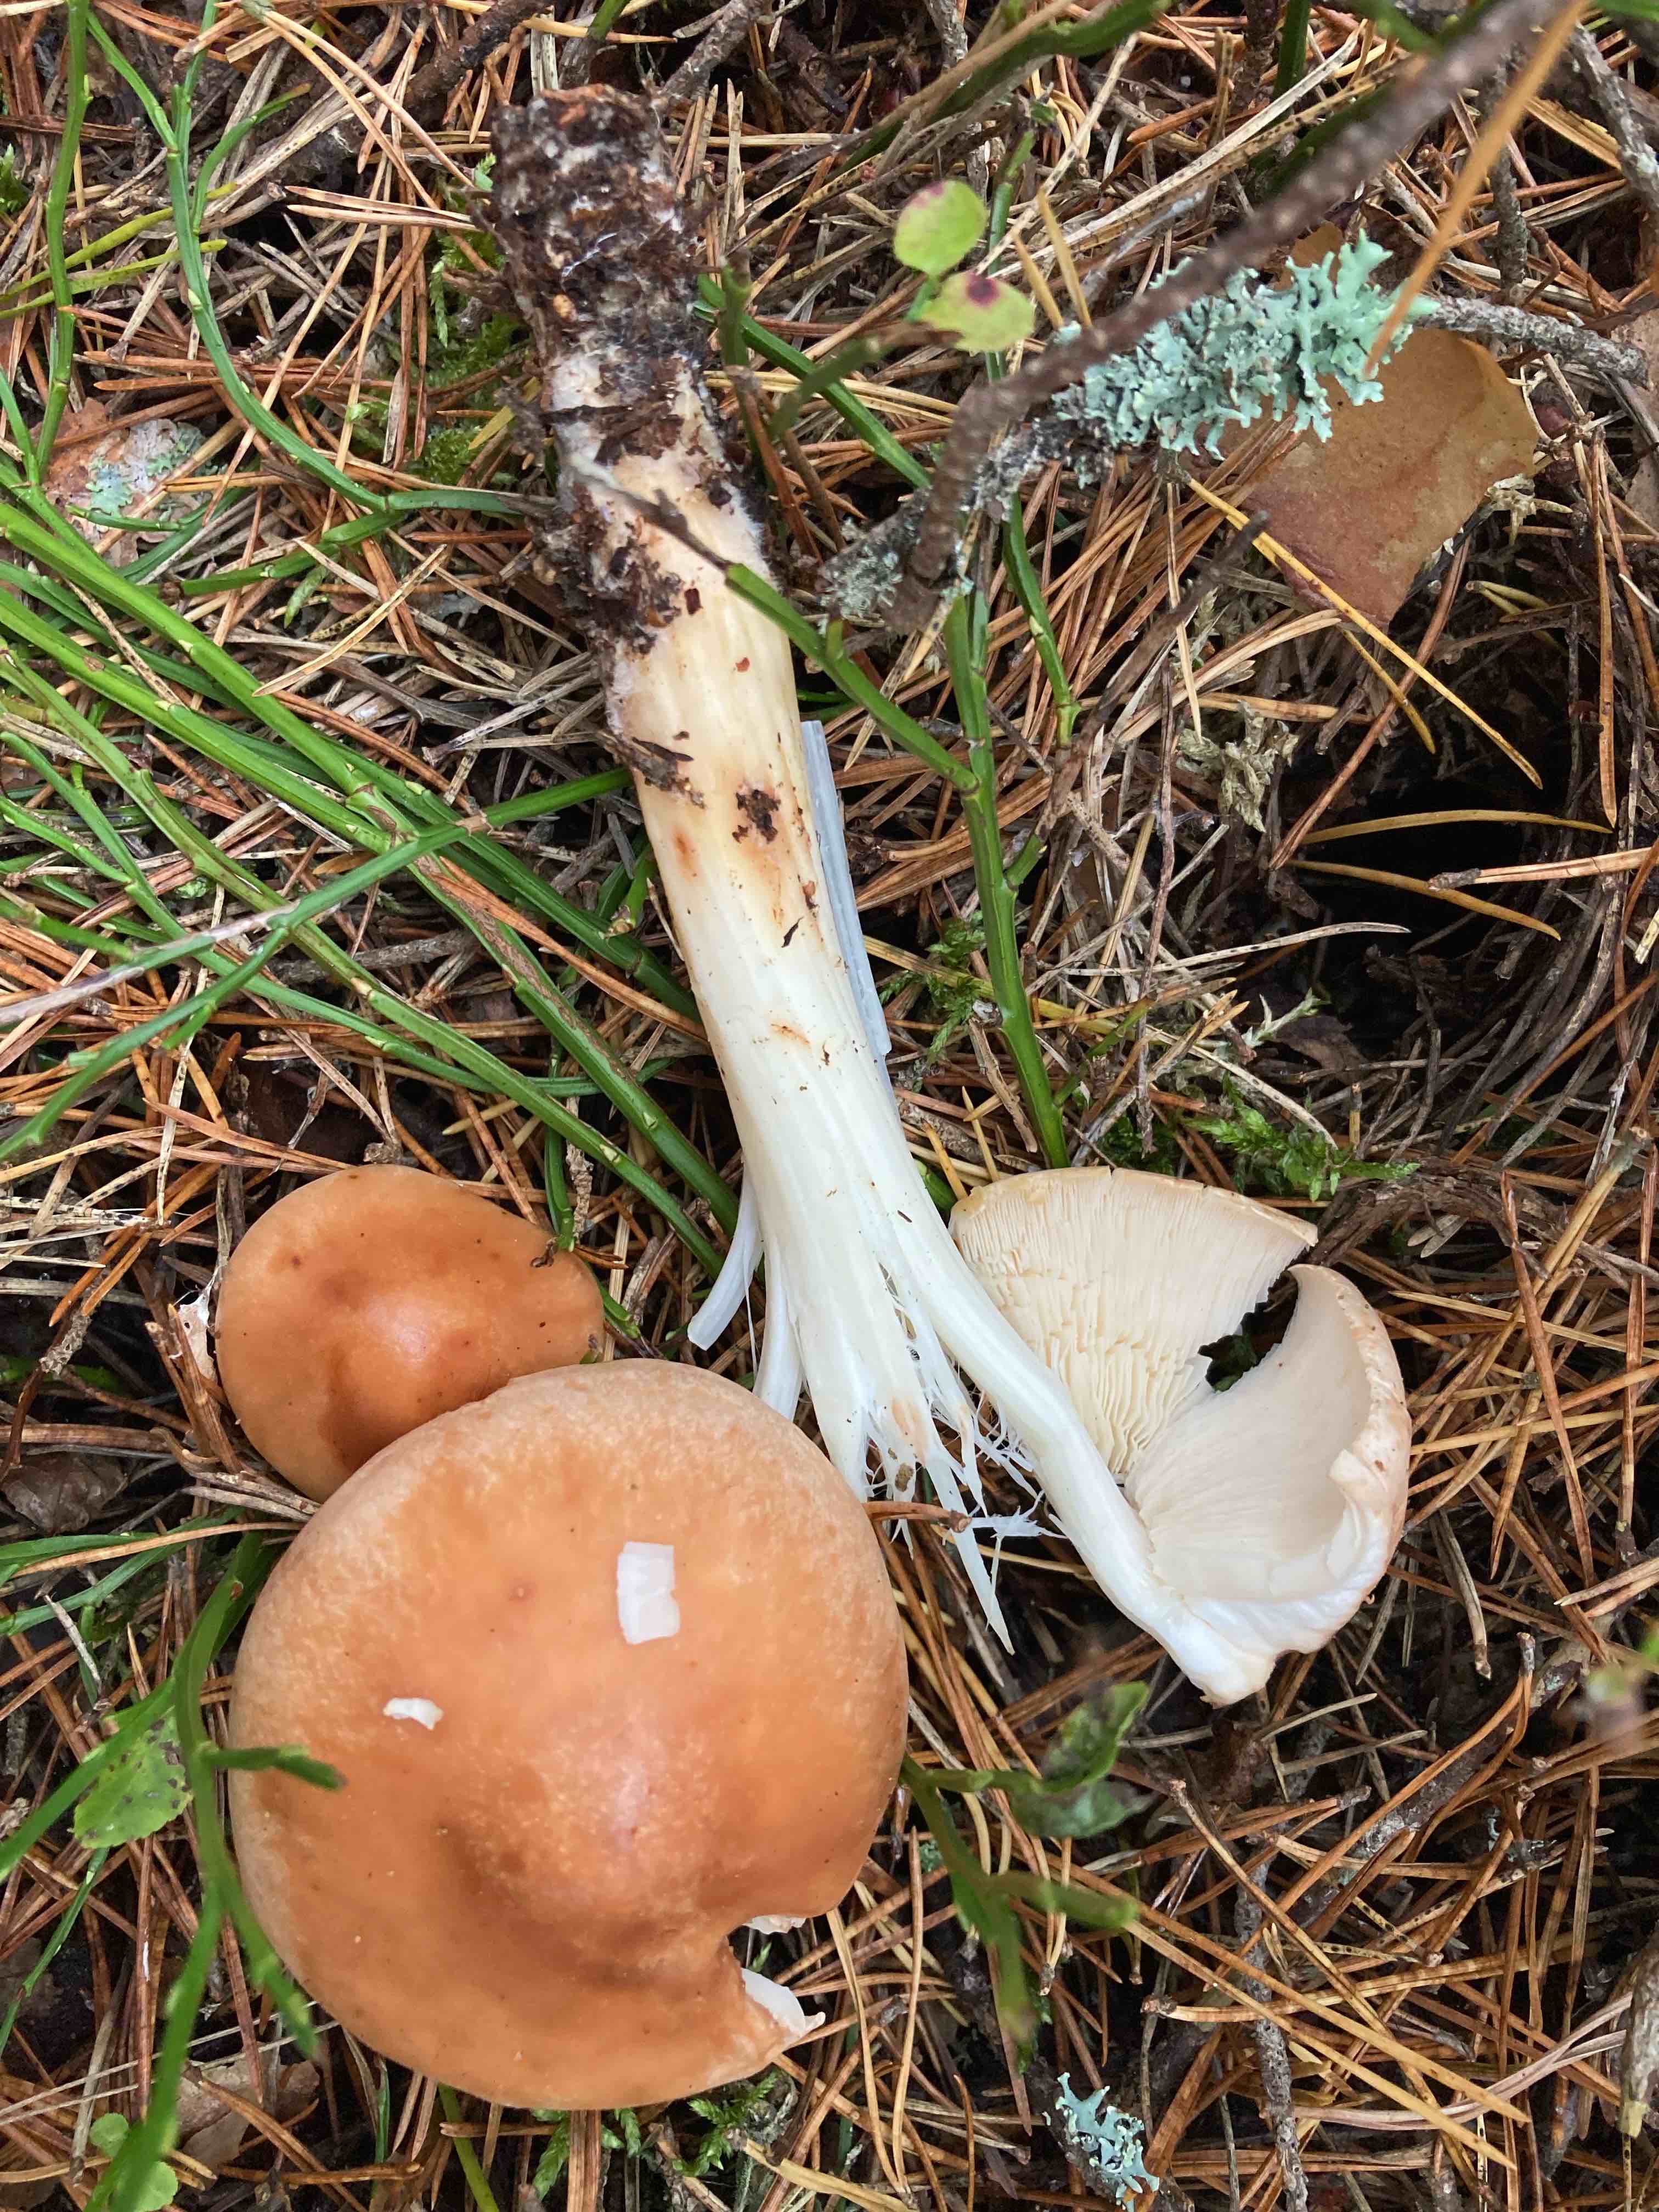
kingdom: Fungi
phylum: Basidiomycota
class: Agaricomycetes
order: Agaricales
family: Omphalotaceae
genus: Rhodocollybia
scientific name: Rhodocollybia prolixa
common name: snoet fladhat
